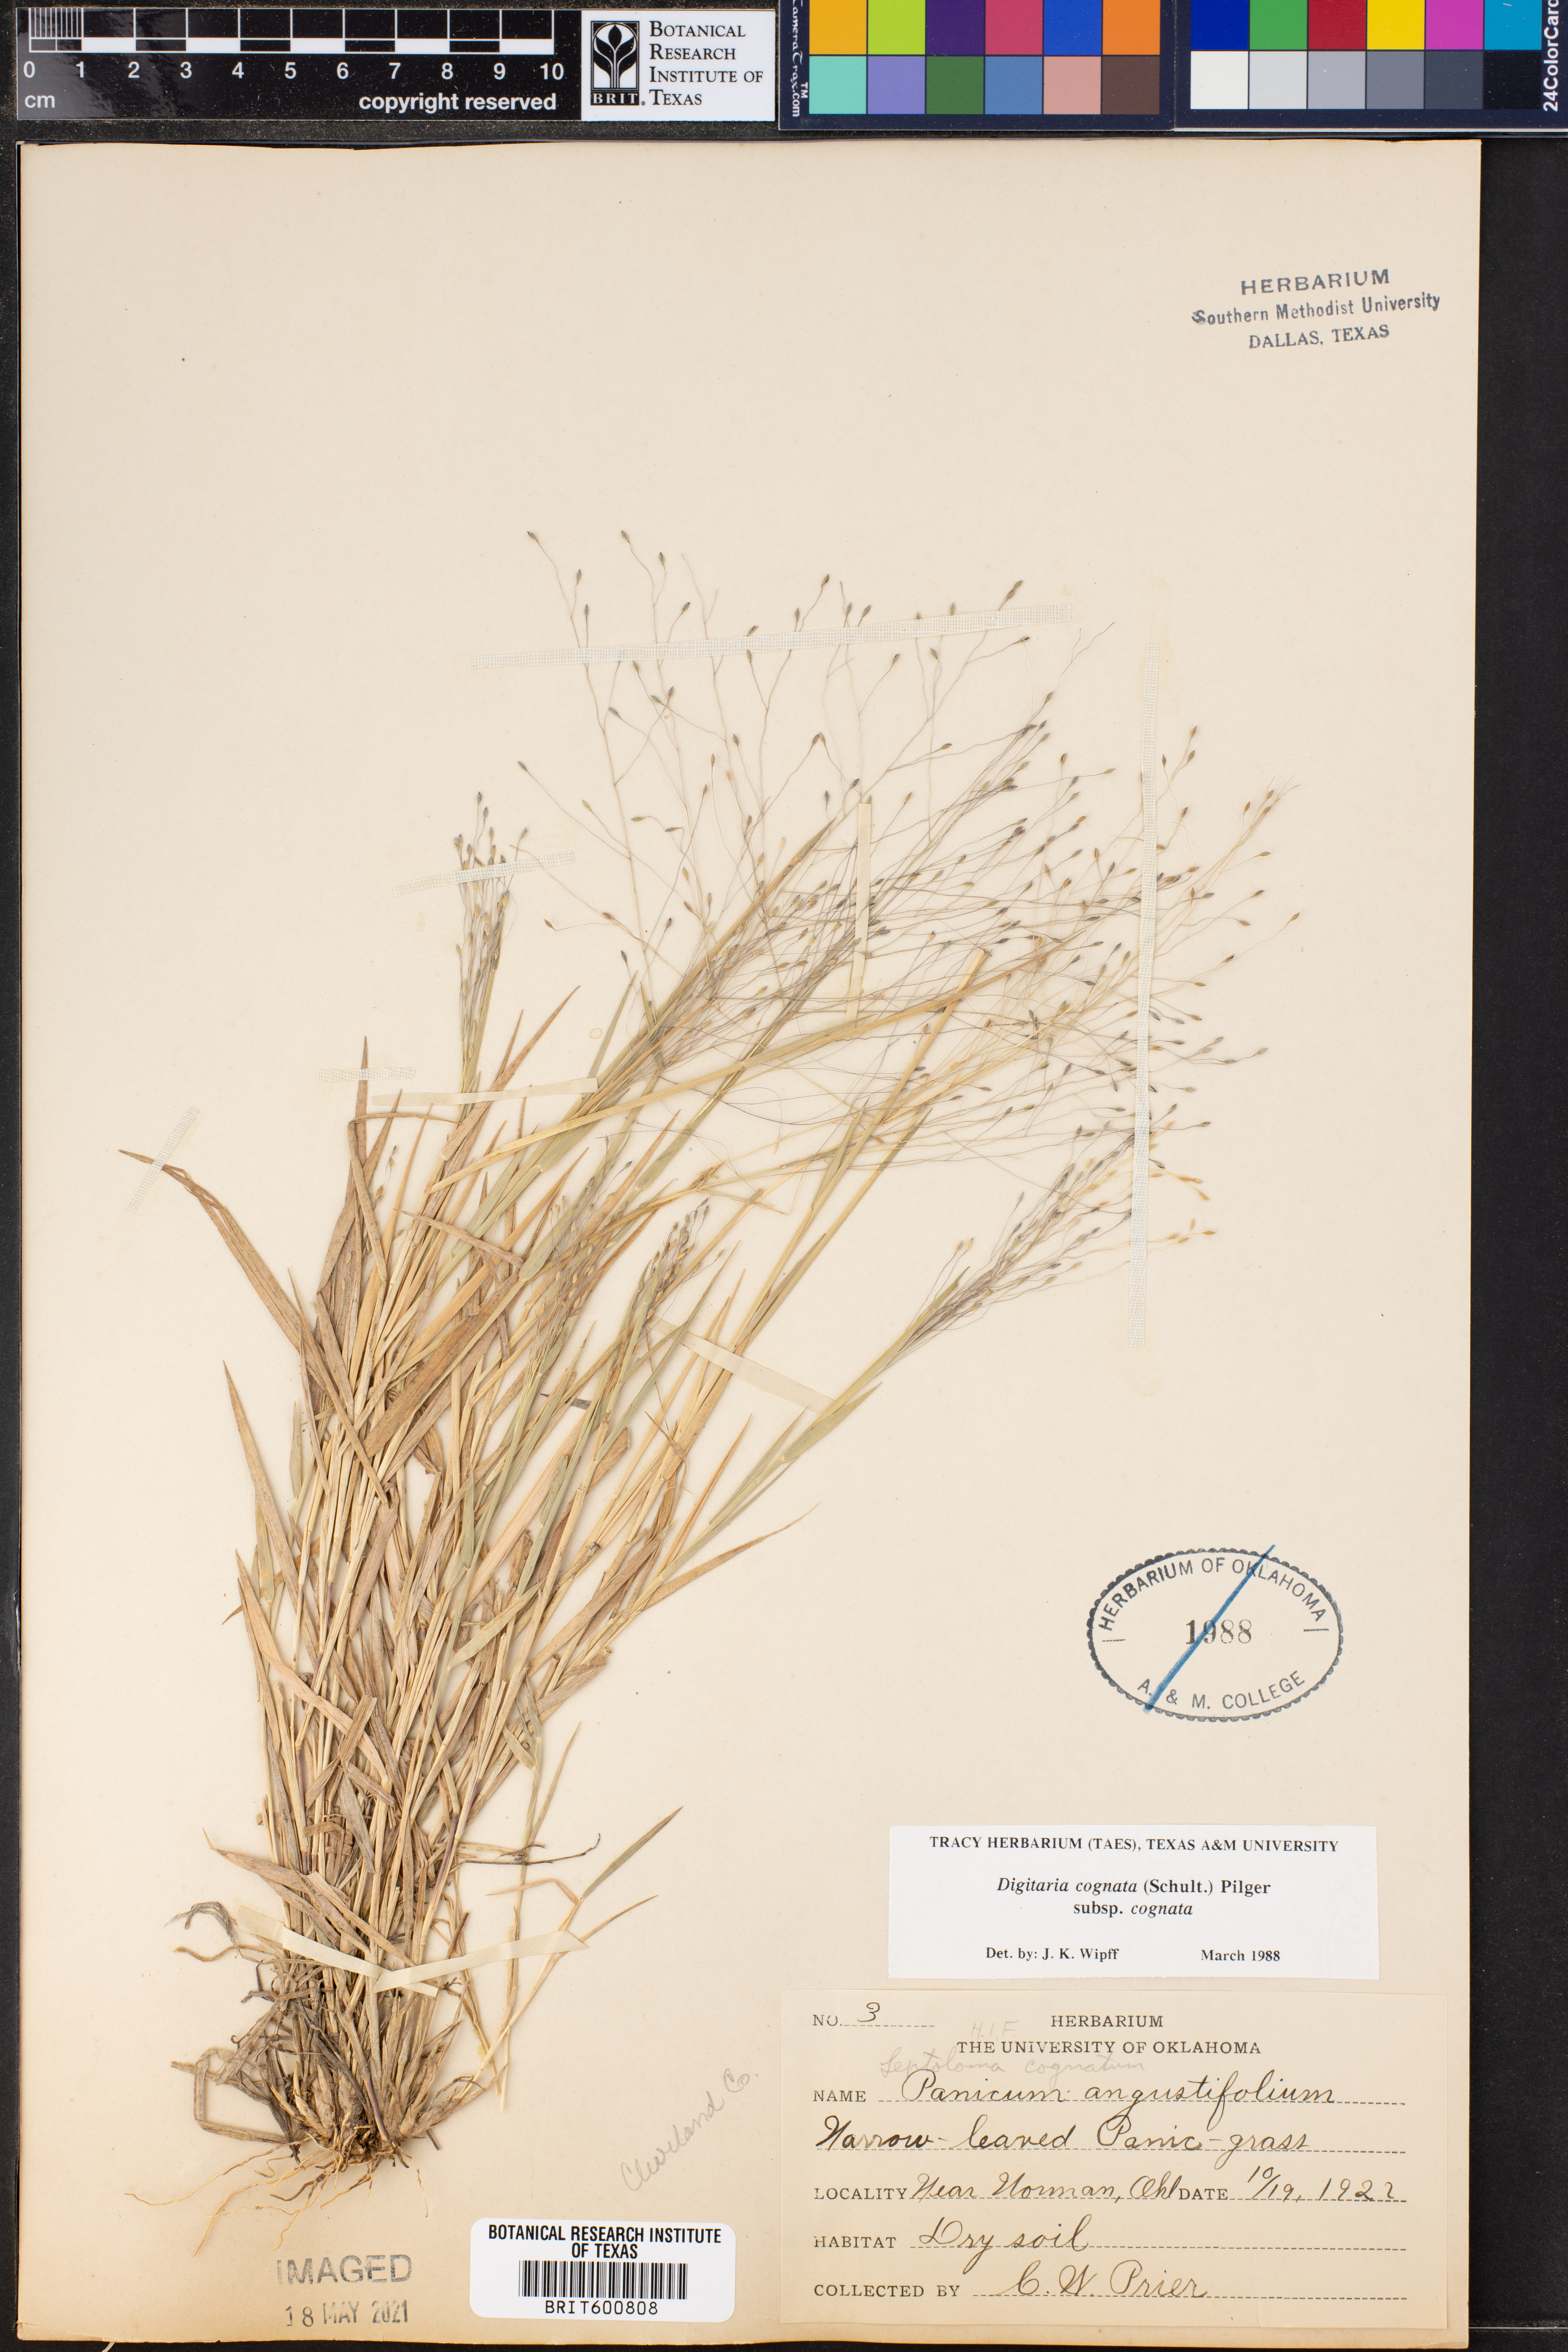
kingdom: Plantae
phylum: Tracheophyta
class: Liliopsida
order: Poales
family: Poaceae
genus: Digitaria
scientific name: Digitaria cognata
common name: Fall witchgrass
